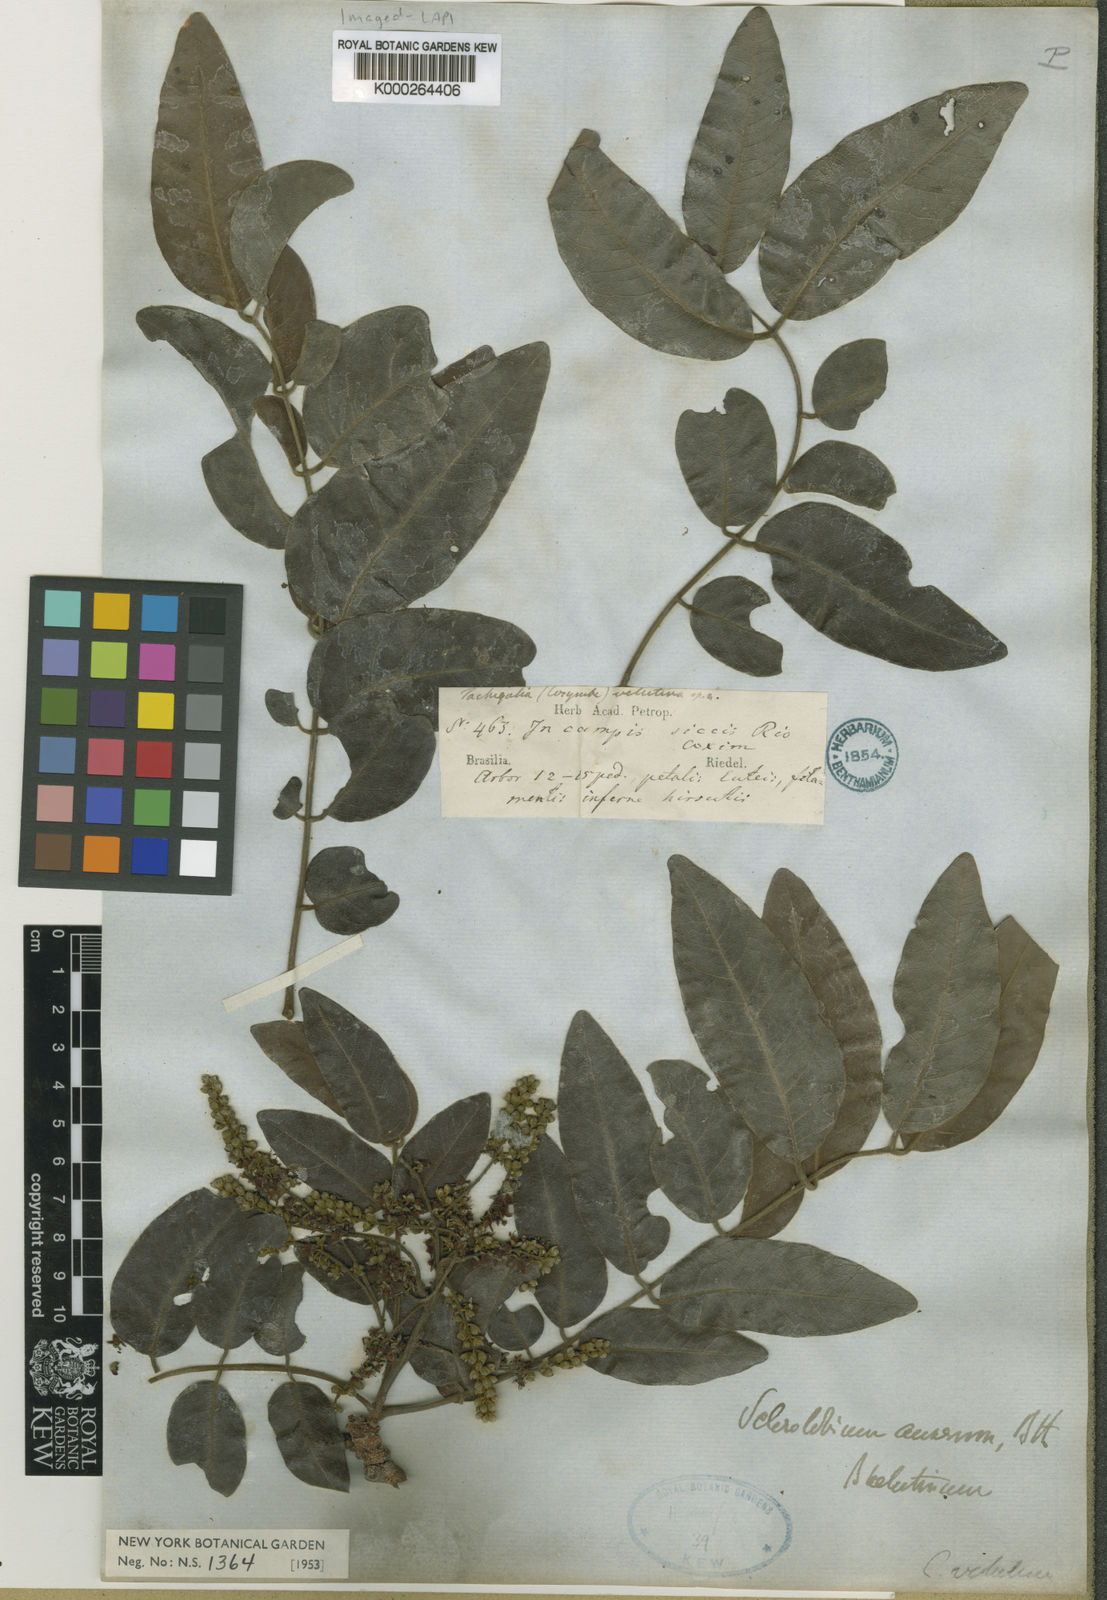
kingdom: Plantae
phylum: Tracheophyta
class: Magnoliopsida
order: Fabales
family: Fabaceae
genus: Tachigali
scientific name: Tachigali aurea
